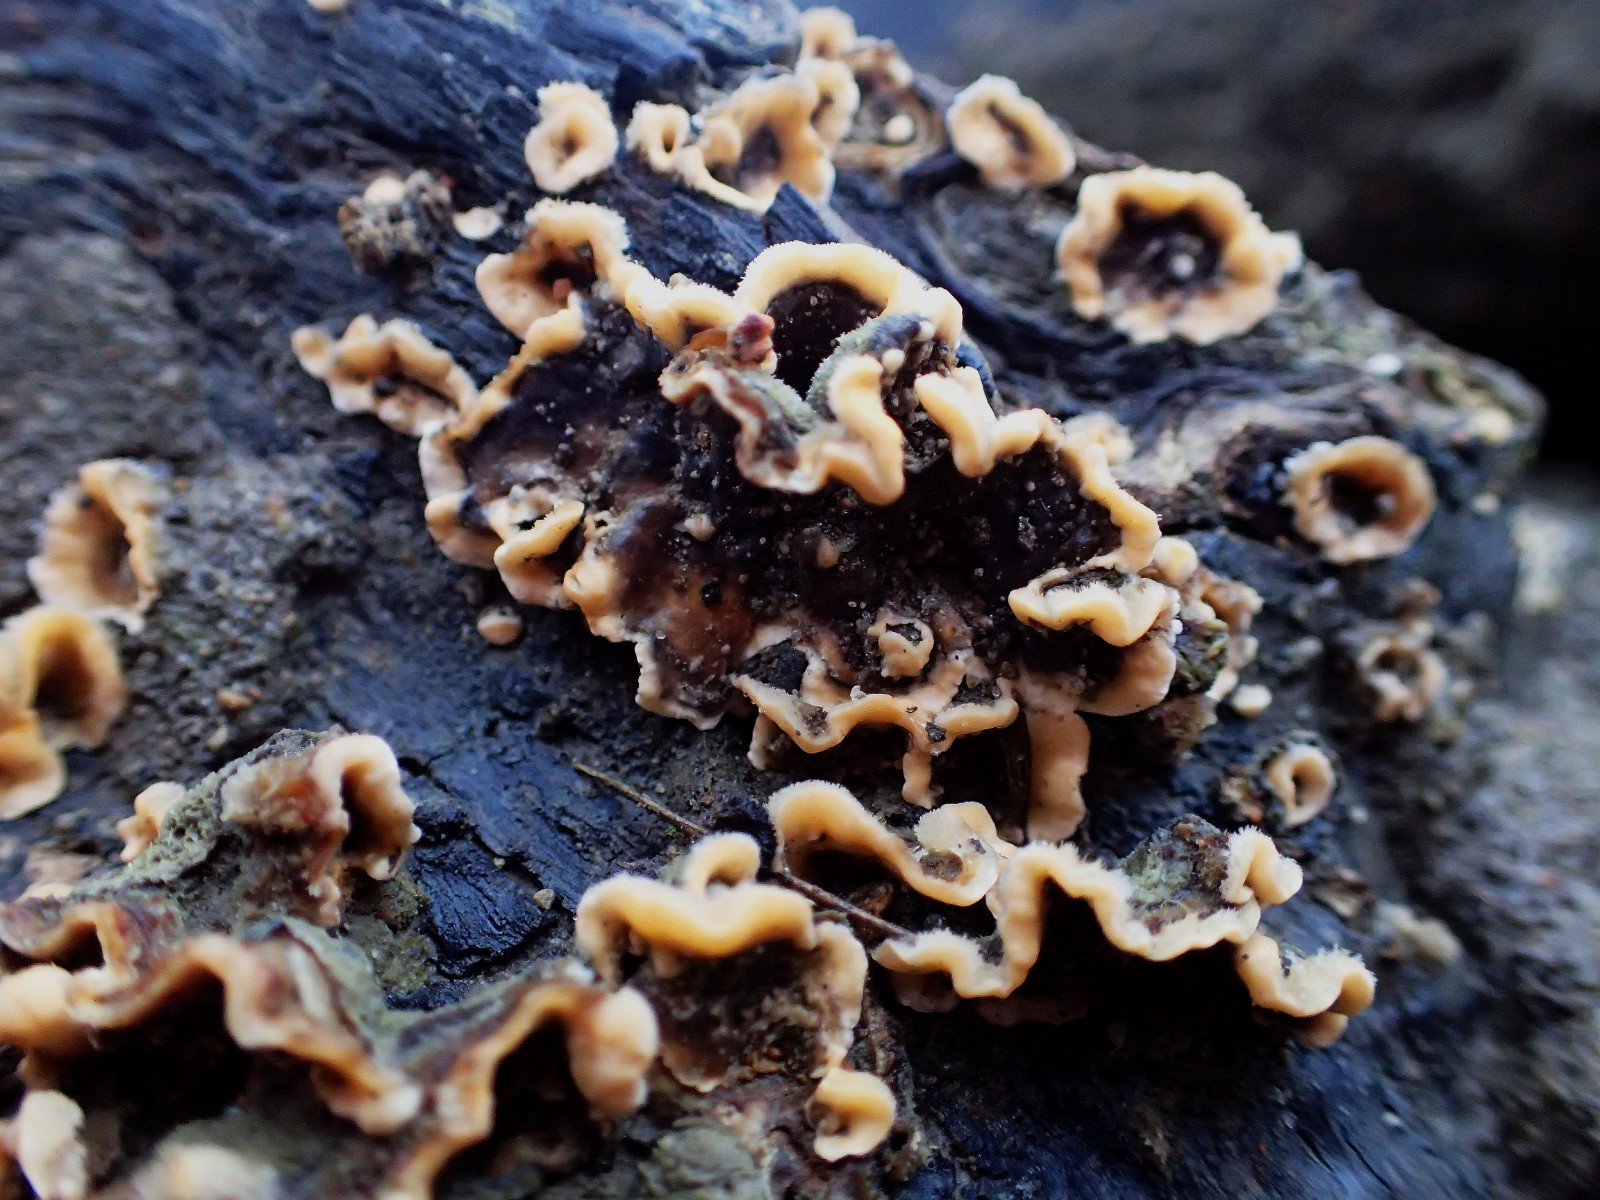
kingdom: Fungi
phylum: Basidiomycota
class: Agaricomycetes
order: Hymenochaetales
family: Hymenochaetaceae
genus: Hymenochaete
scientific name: Hymenochaete rubiginosa
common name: stiv ruslædersvamp
